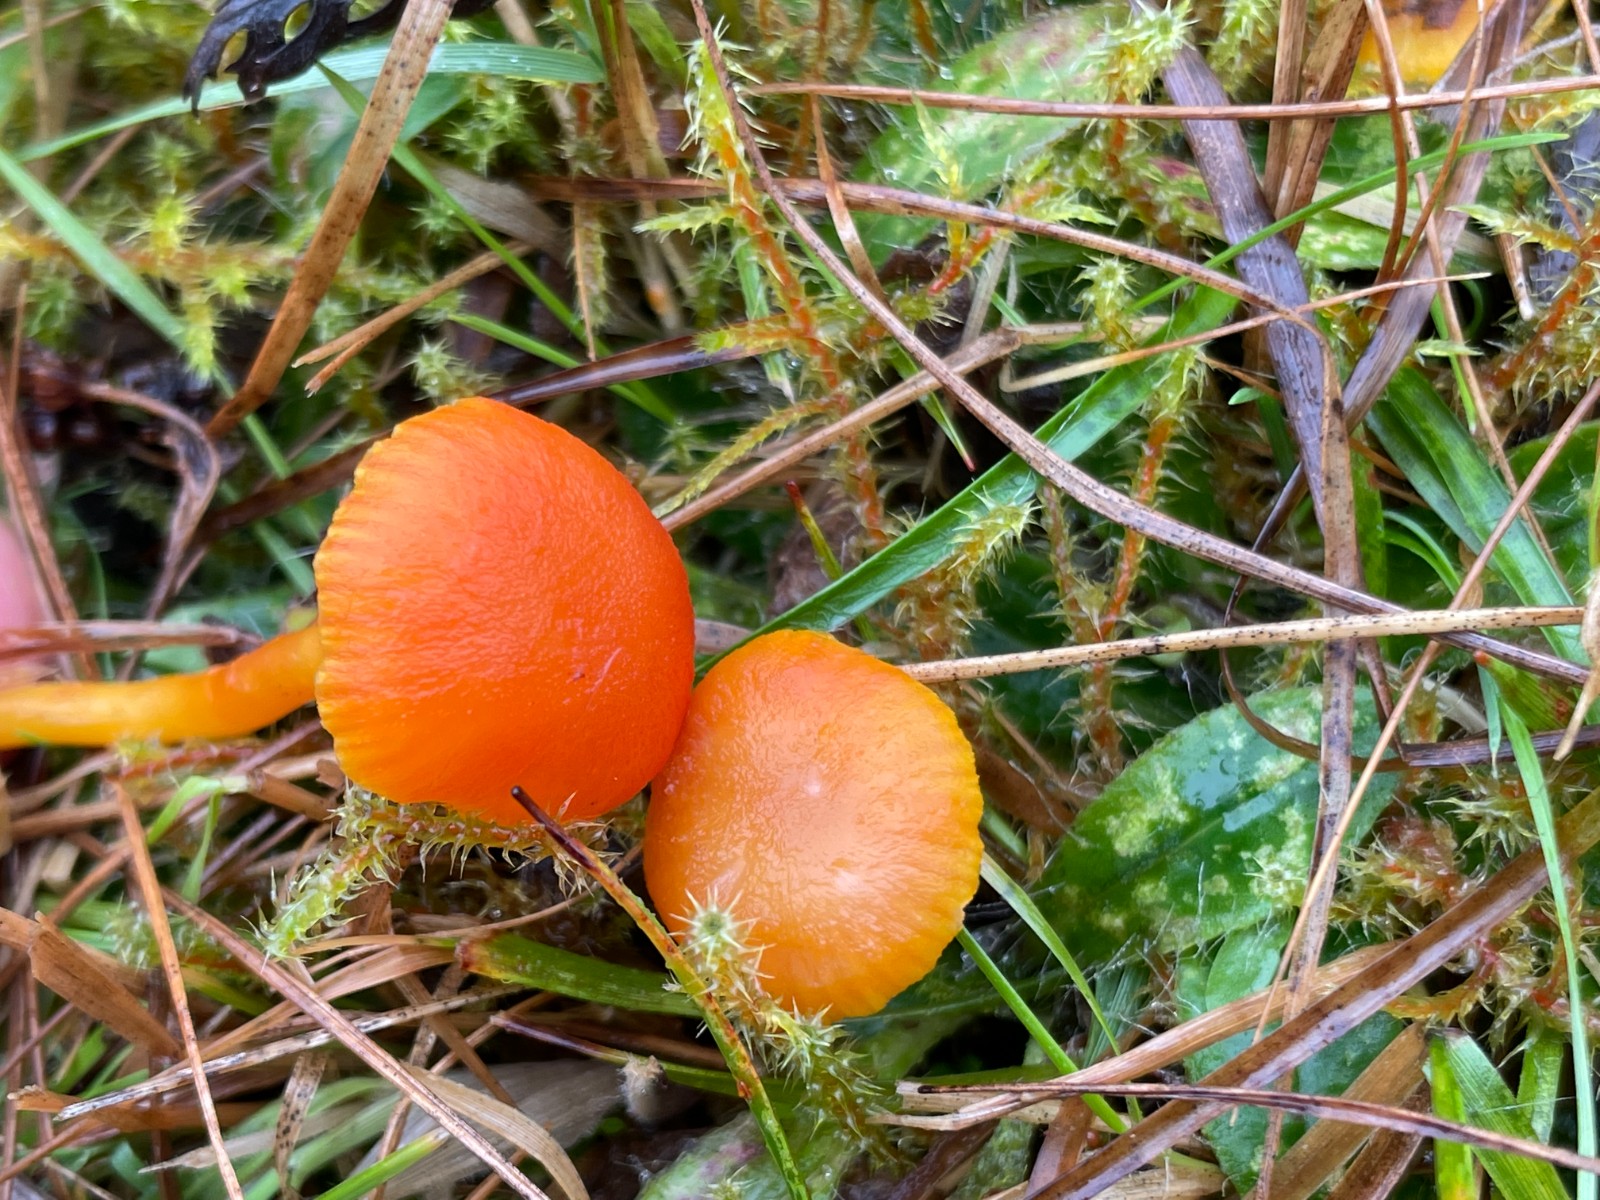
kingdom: Fungi
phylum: Basidiomycota
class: Agaricomycetes
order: Agaricales
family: Hygrophoraceae
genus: Hygrocybe
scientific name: Hygrocybe insipida
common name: liden vokshat
